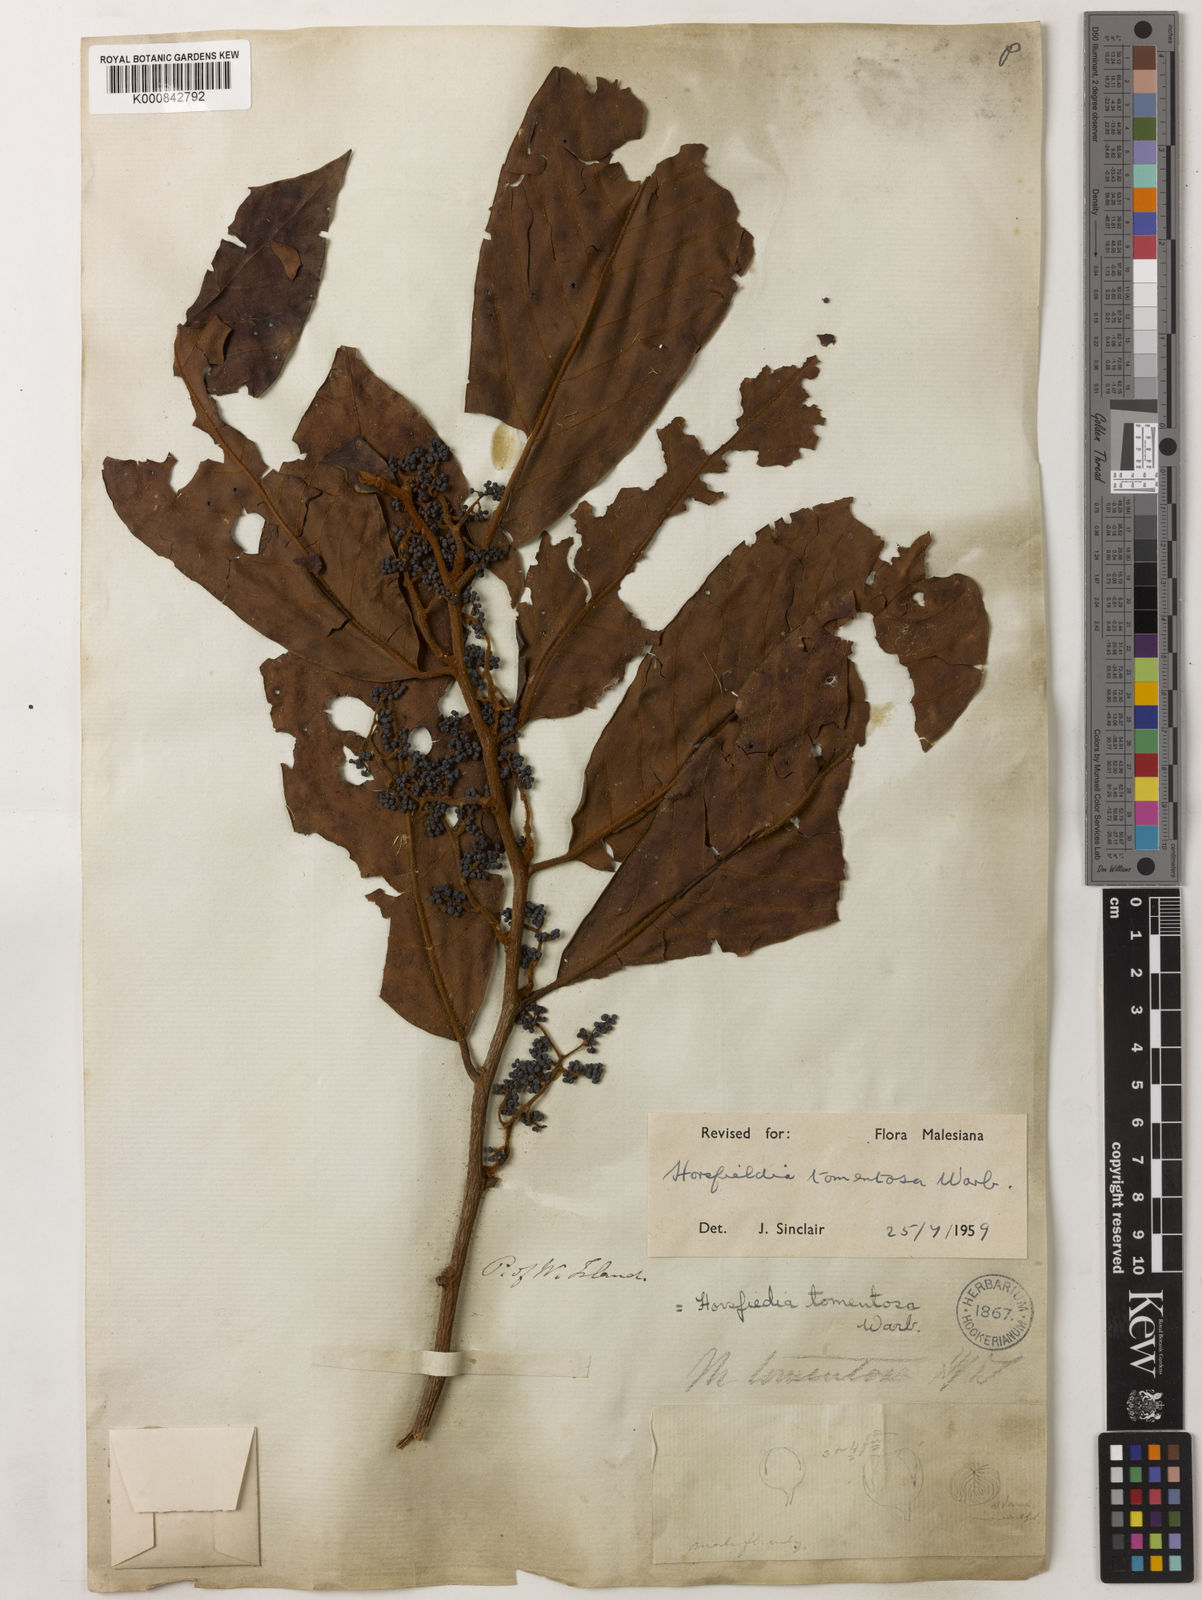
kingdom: Plantae
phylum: Tracheophyta
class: Magnoliopsida
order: Magnoliales
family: Myristicaceae
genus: Horsfieldia
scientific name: Horsfieldia tomentosa
